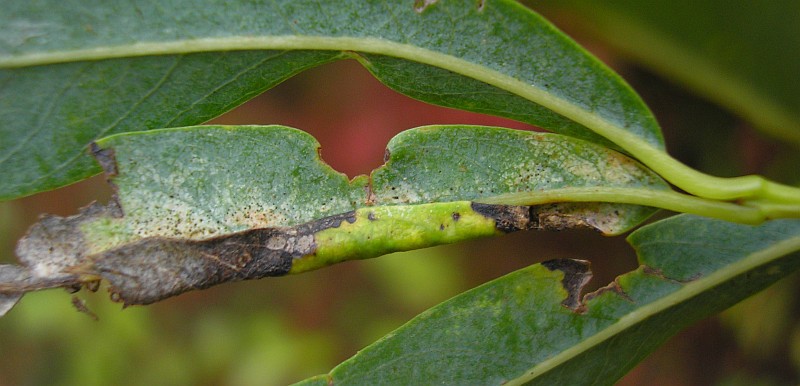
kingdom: Animalia
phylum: Arthropoda
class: Insecta
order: Hymenoptera
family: Tenthredinidae
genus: Phyllocolpa
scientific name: Phyllocolpa
